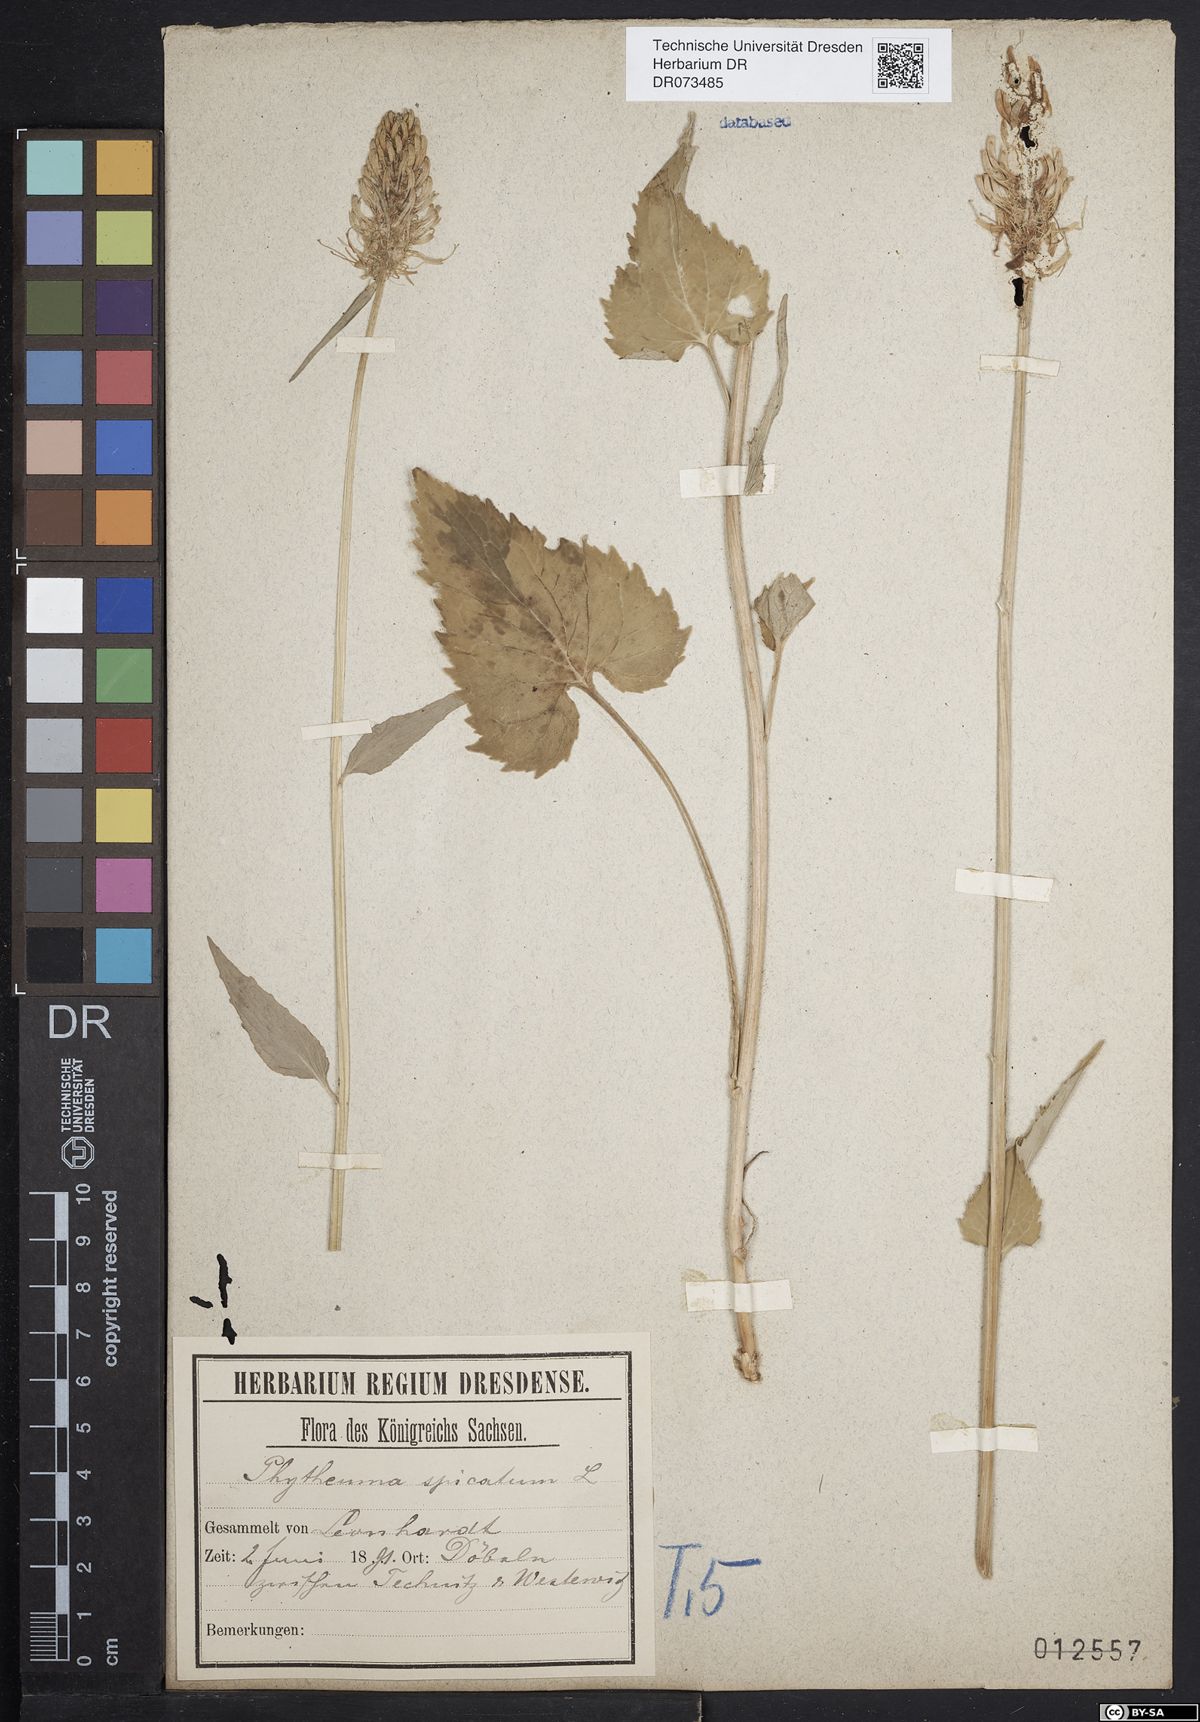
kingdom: Plantae
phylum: Tracheophyta
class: Magnoliopsida
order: Asterales
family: Campanulaceae
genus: Phyteuma
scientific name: Phyteuma spicatum
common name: Spiked rampion
